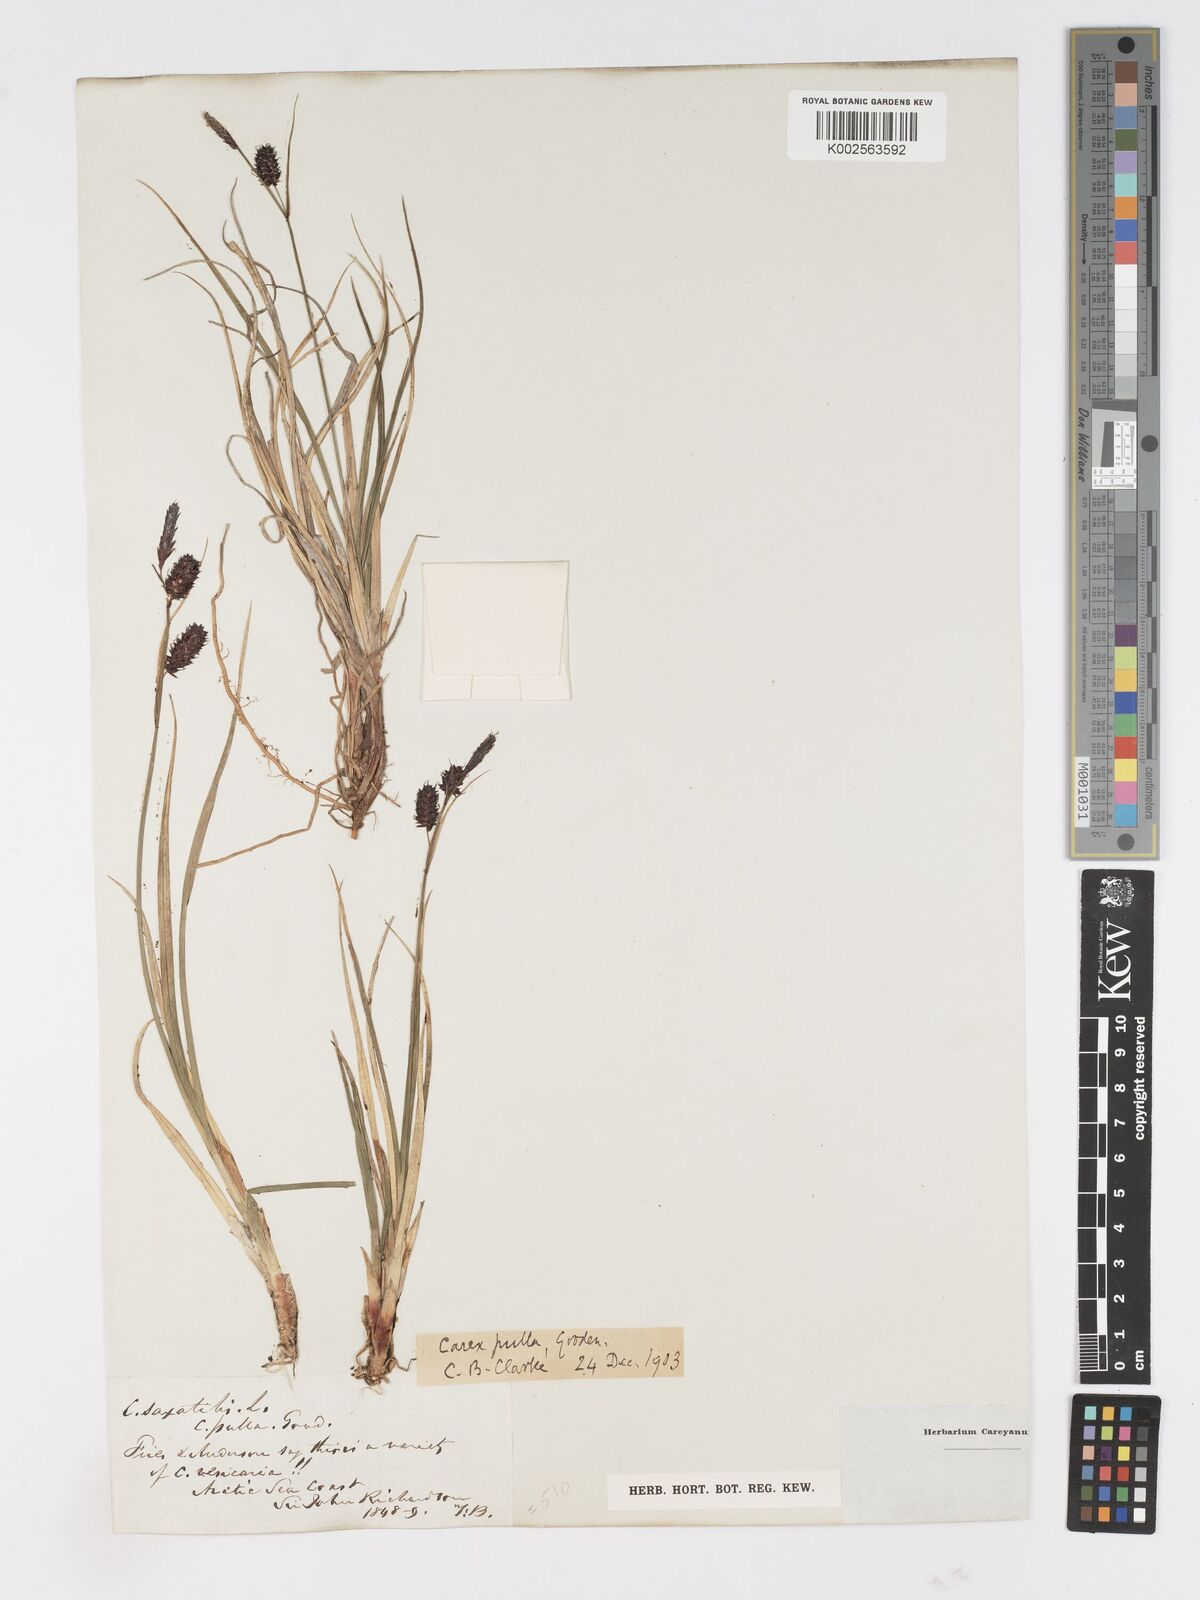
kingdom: Plantae
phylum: Tracheophyta
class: Liliopsida
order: Poales
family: Cyperaceae
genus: Carex
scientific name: Carex miliaris
